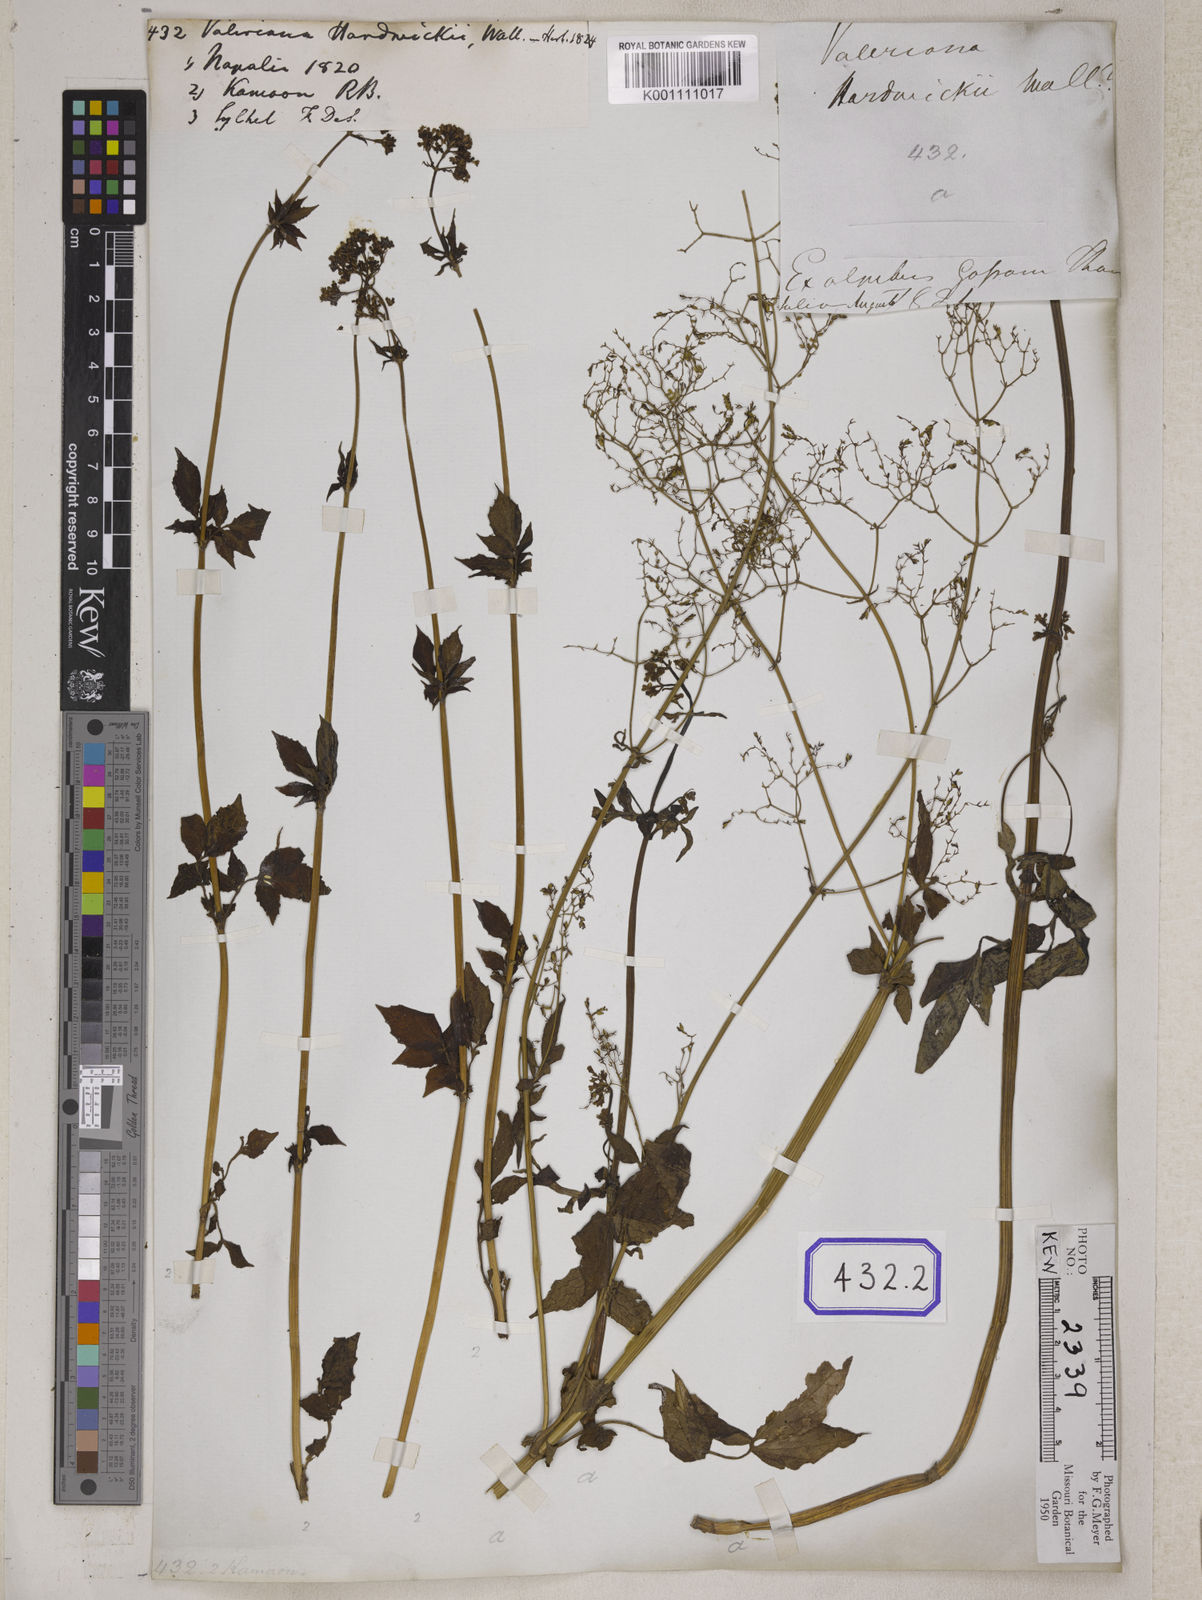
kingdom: Plantae
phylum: Tracheophyta
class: Magnoliopsida
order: Dipsacales
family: Caprifoliaceae
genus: Valeriana
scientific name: Valeriana hardwickei
